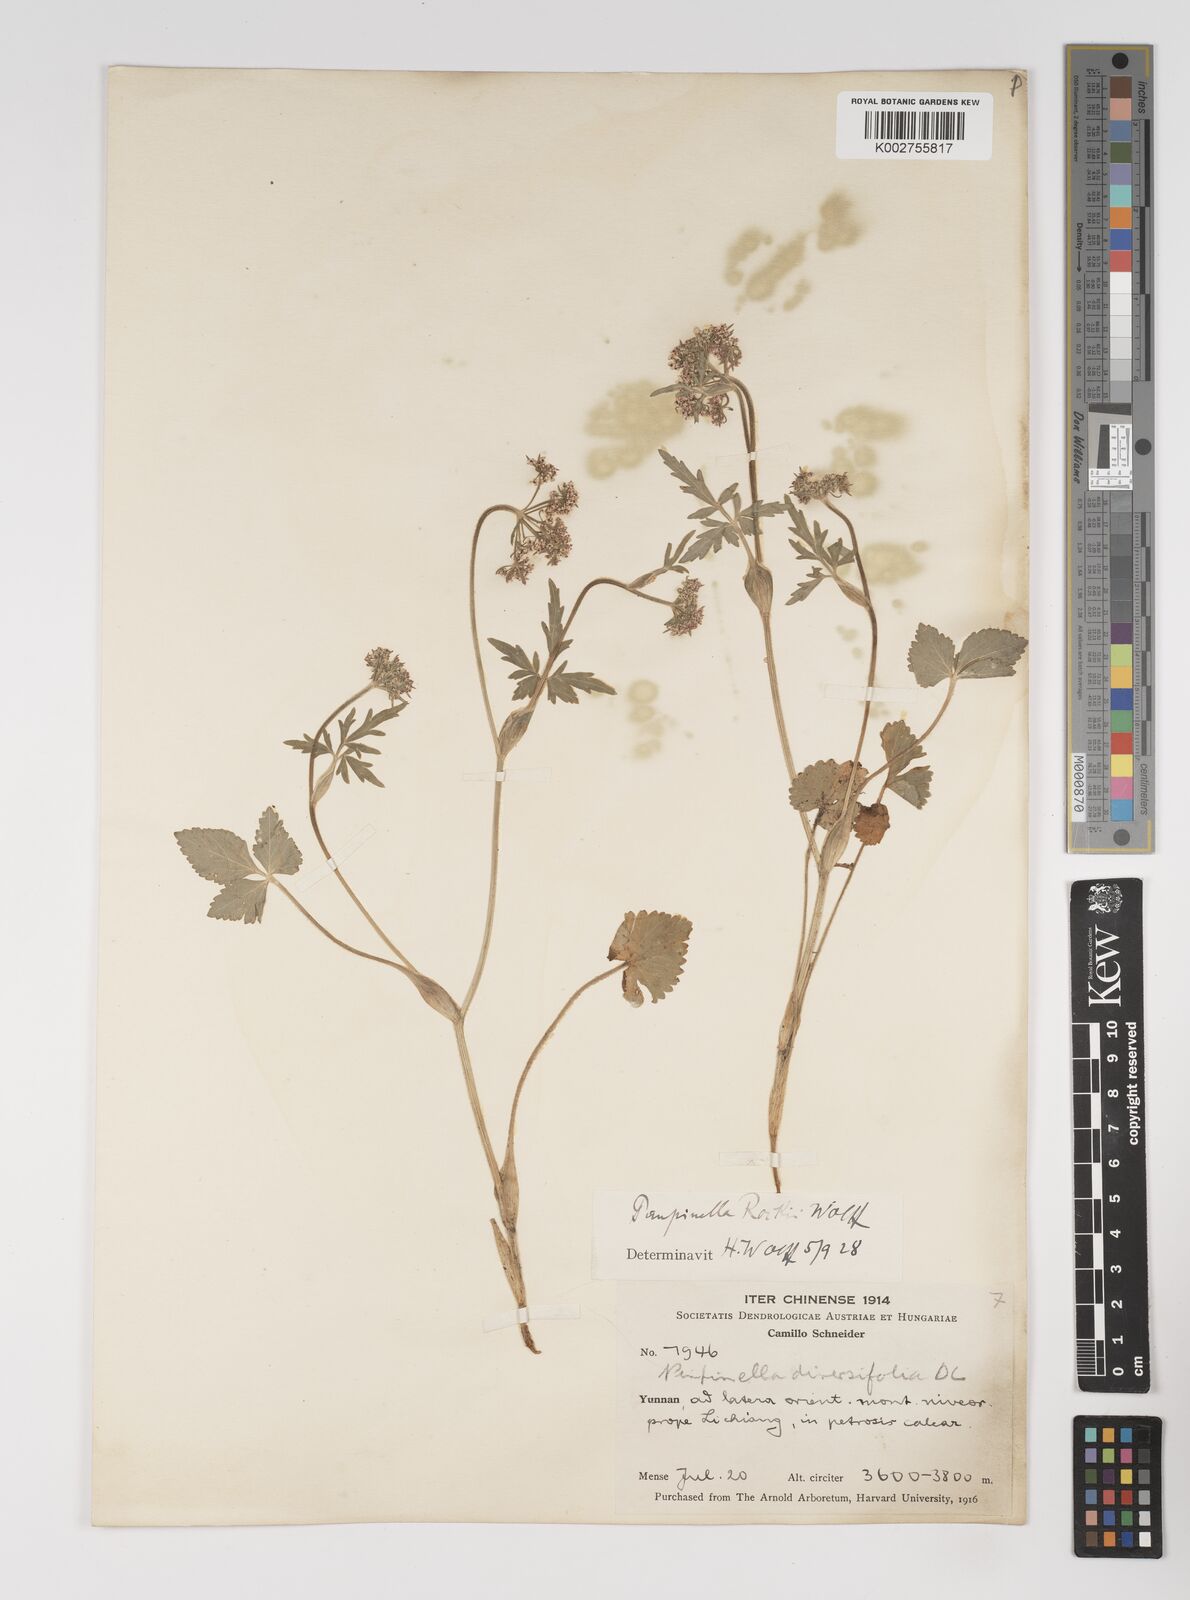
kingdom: Plantae
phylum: Tracheophyta
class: Magnoliopsida
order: Apiales
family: Apiaceae
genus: Pimpinella
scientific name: Pimpinella coriacea
